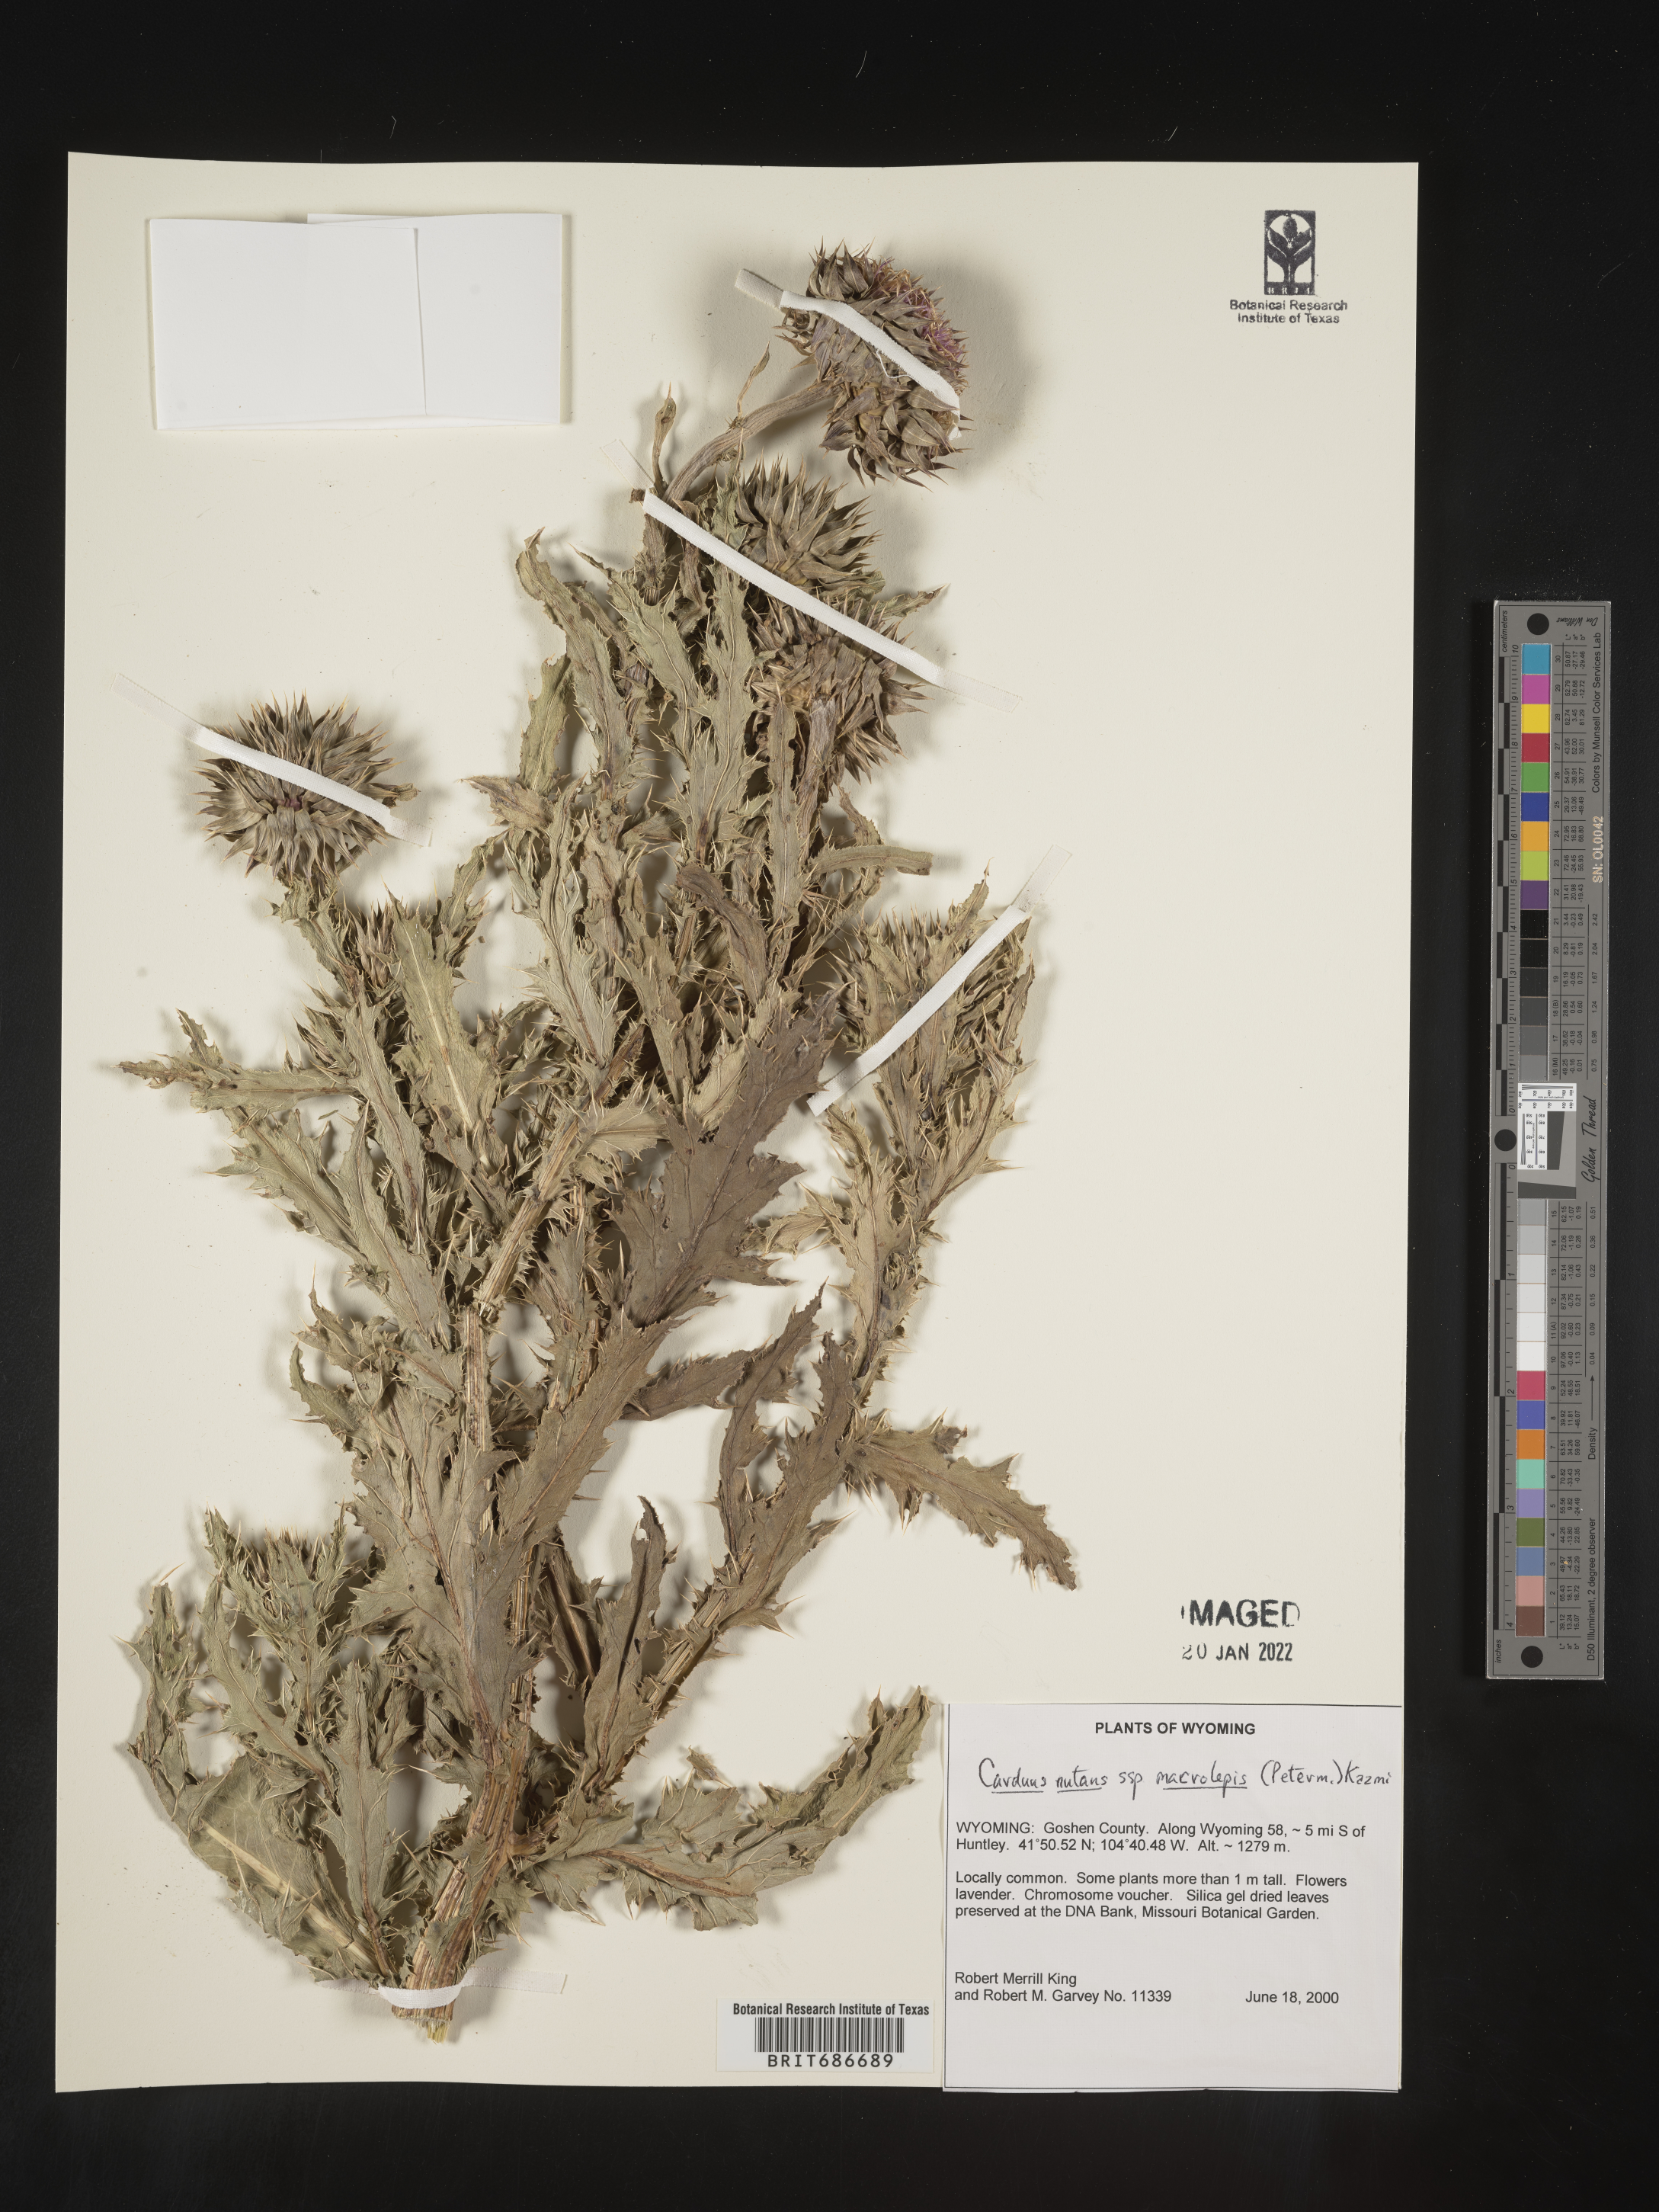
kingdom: Plantae
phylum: Tracheophyta
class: Magnoliopsida
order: Asterales
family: Asteraceae
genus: Carduus
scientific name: Carduus nutans
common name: Musk thistle
